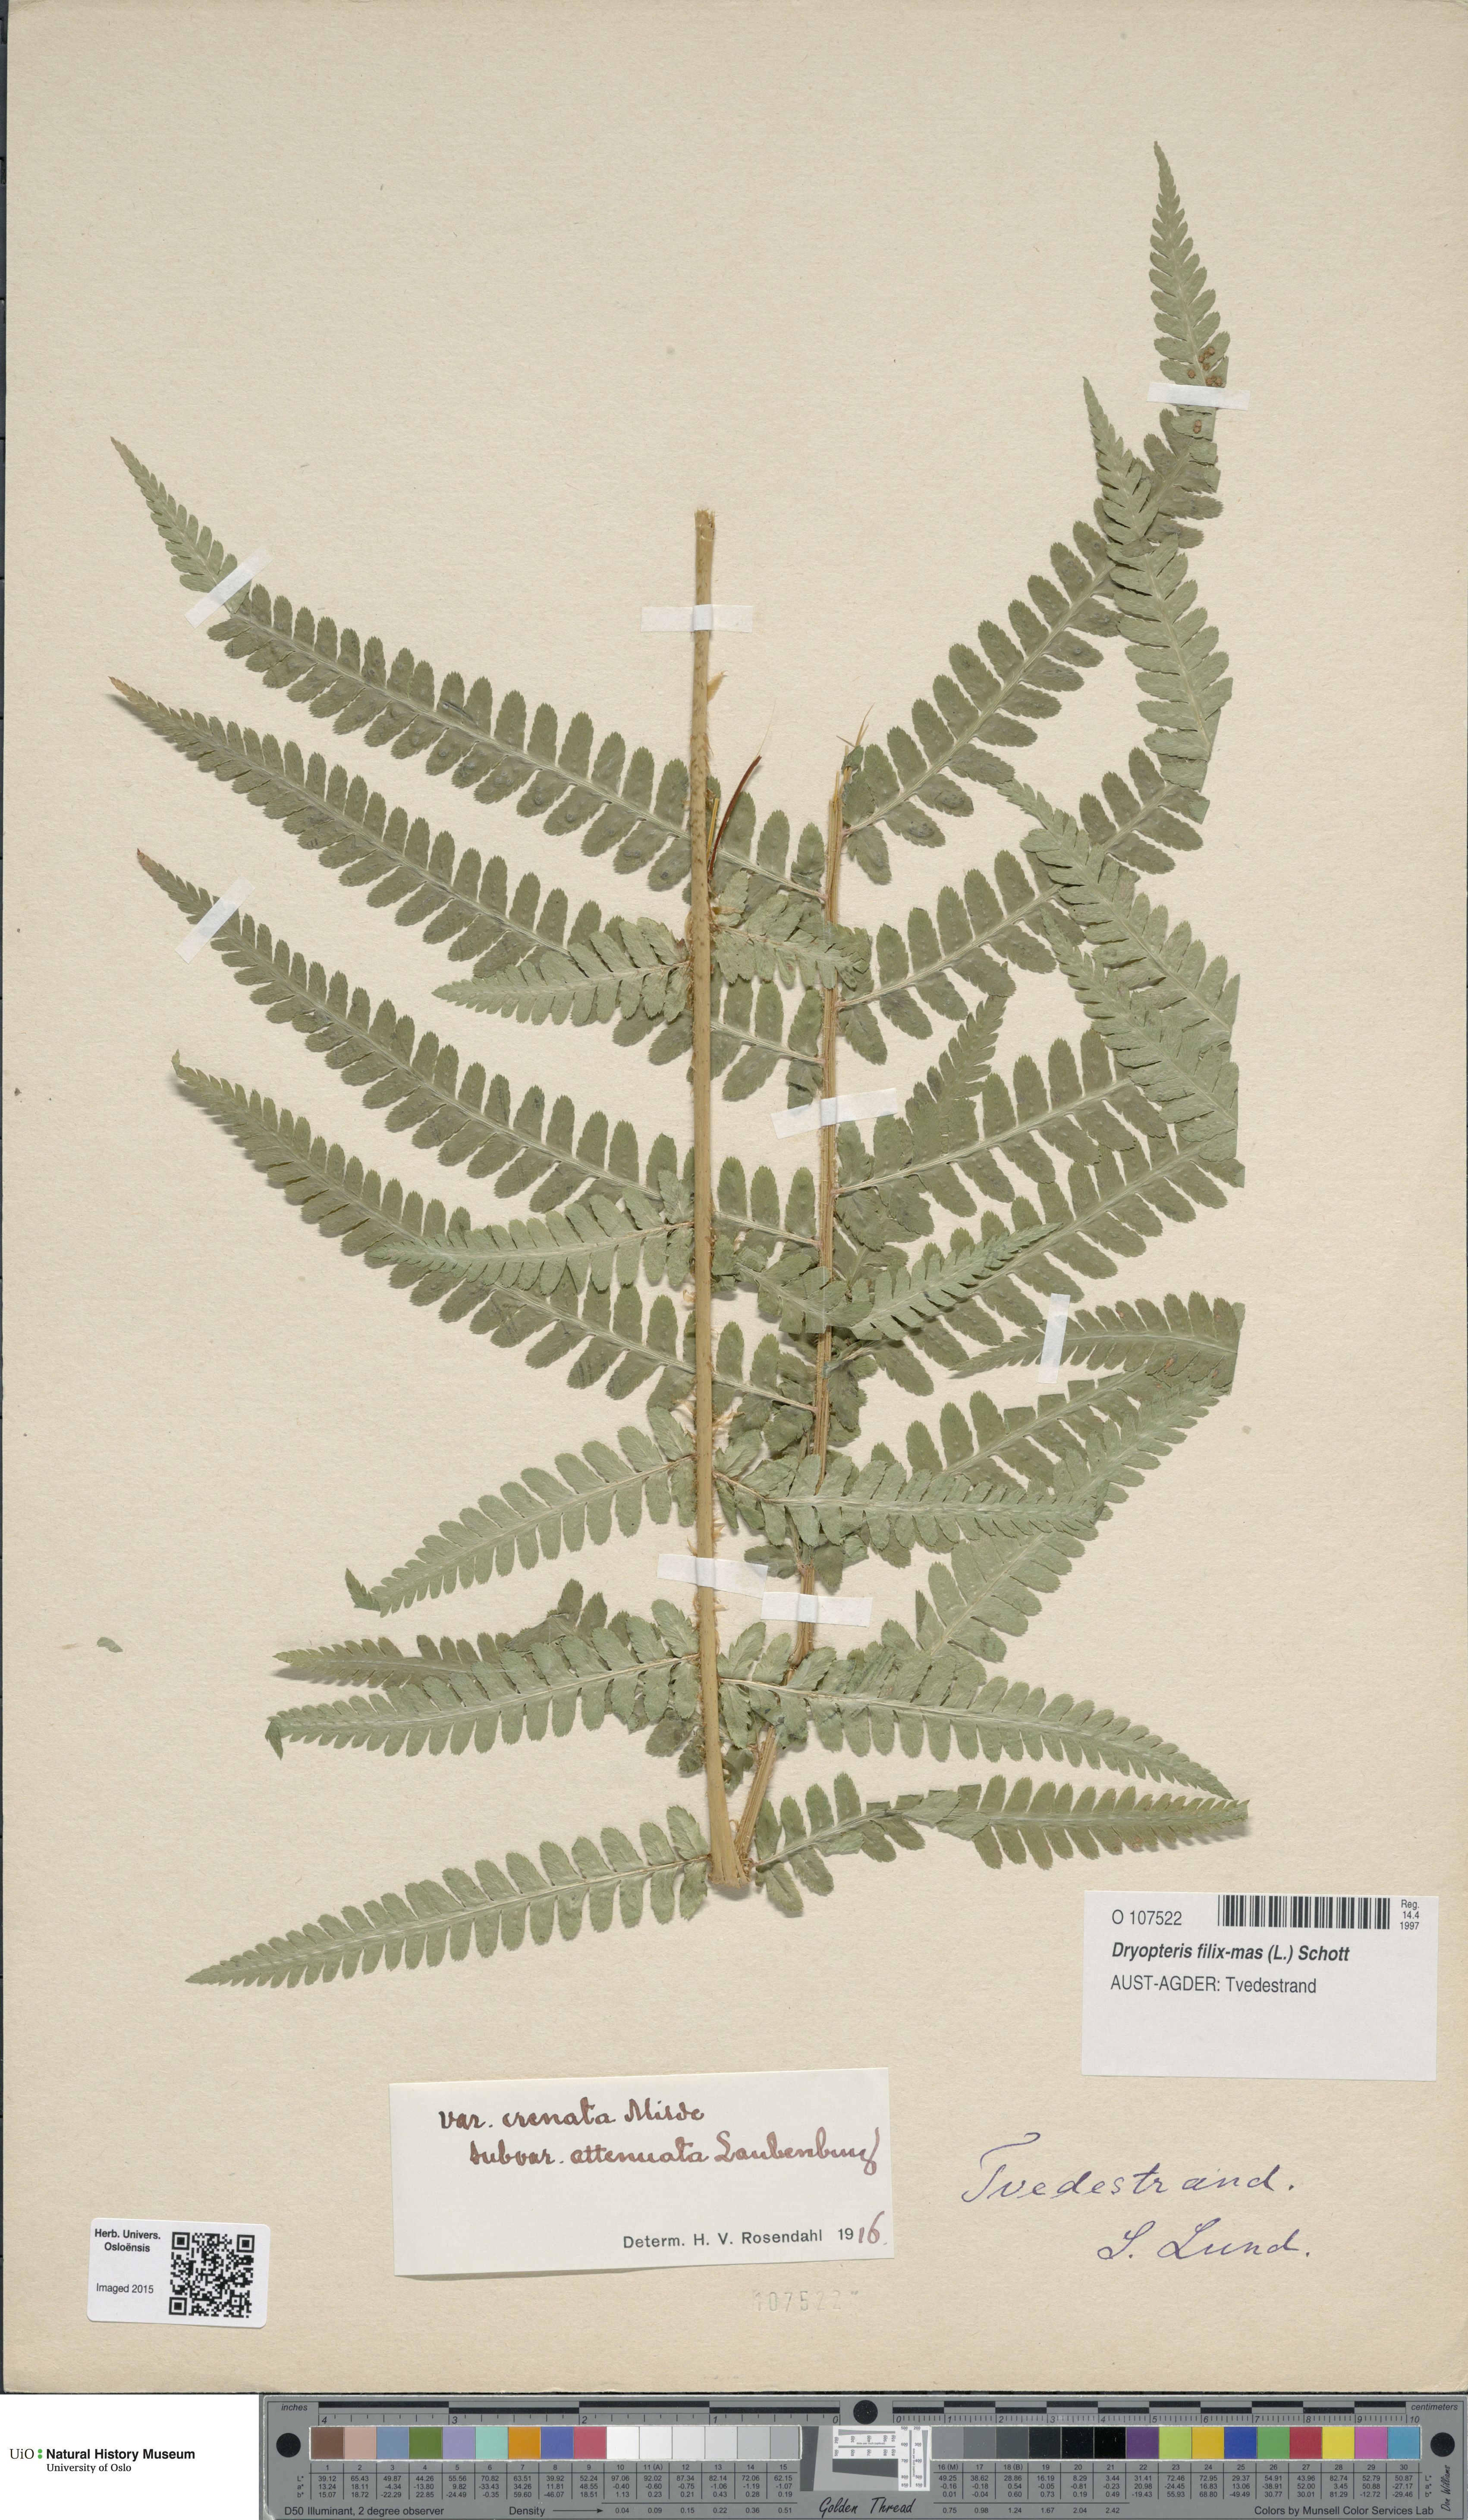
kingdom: Plantae
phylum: Tracheophyta
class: Polypodiopsida
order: Polypodiales
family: Dryopteridaceae
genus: Dryopteris
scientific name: Dryopteris filix-mas
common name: Male fern
